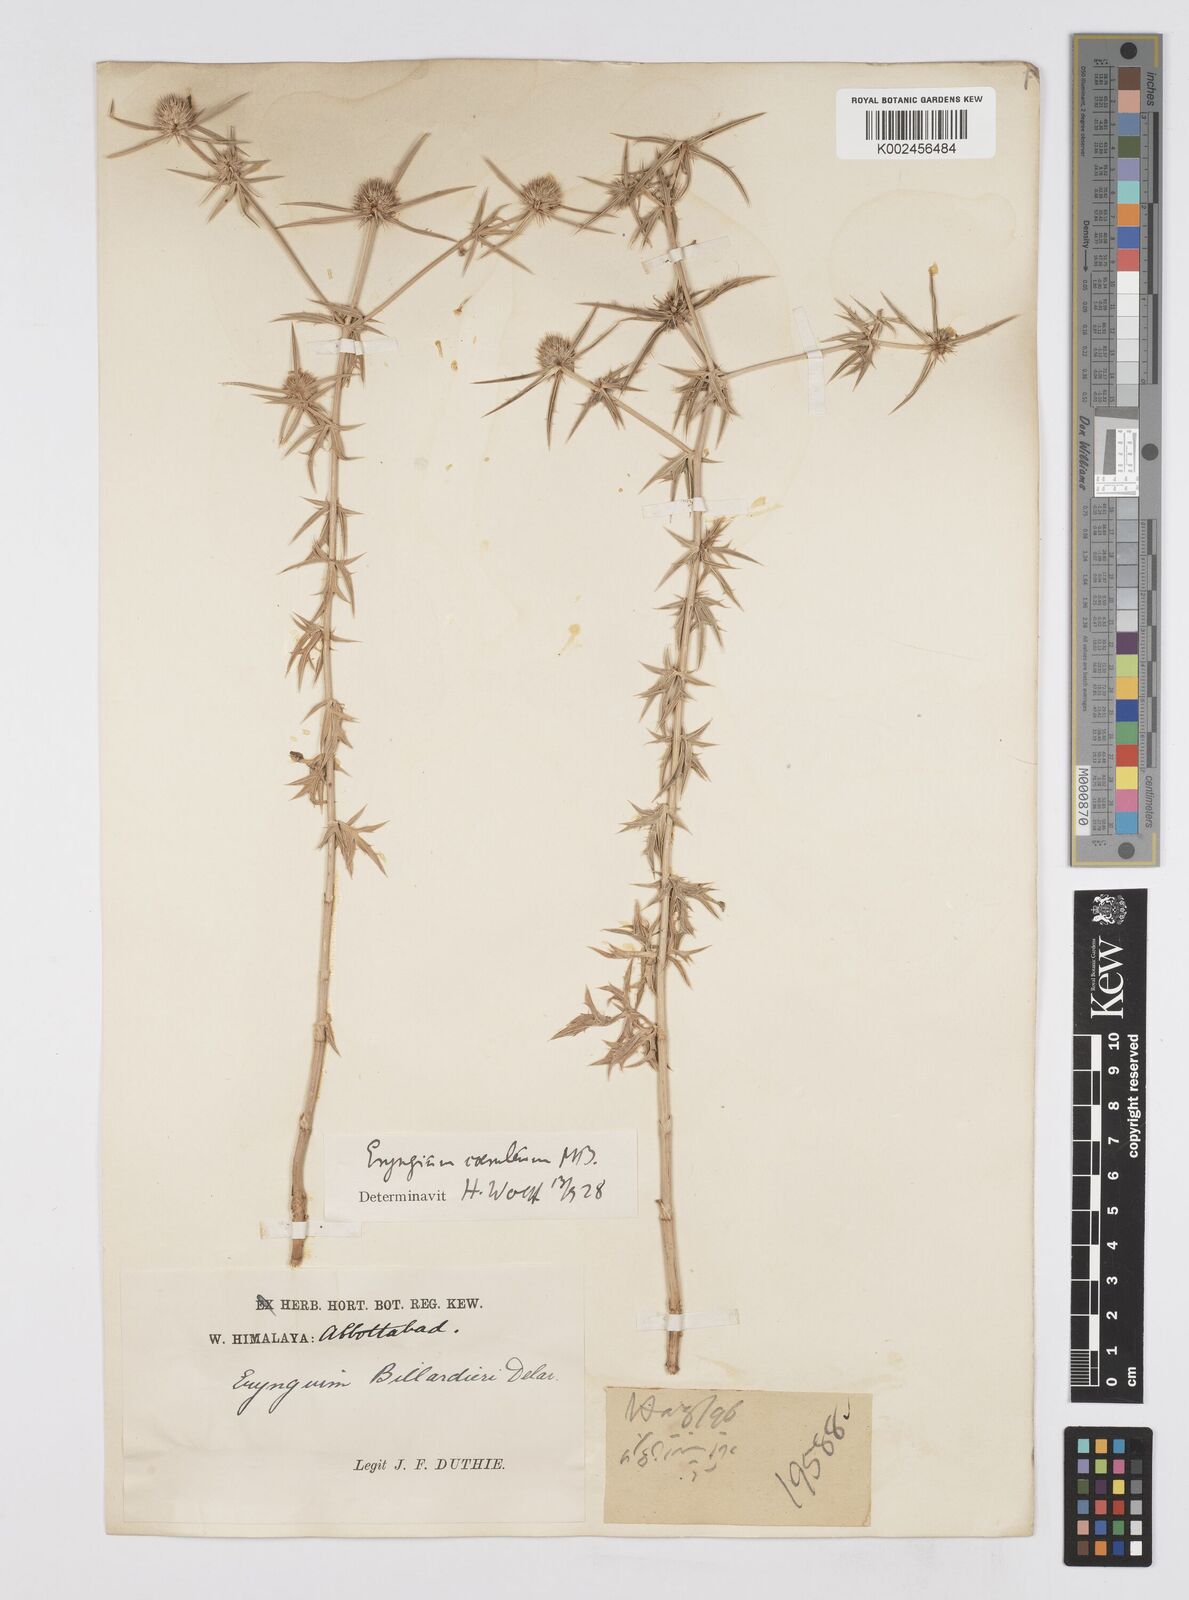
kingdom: Plantae
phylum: Tracheophyta
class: Magnoliopsida
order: Apiales
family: Apiaceae
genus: Eryngium
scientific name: Eryngium caeruleum
